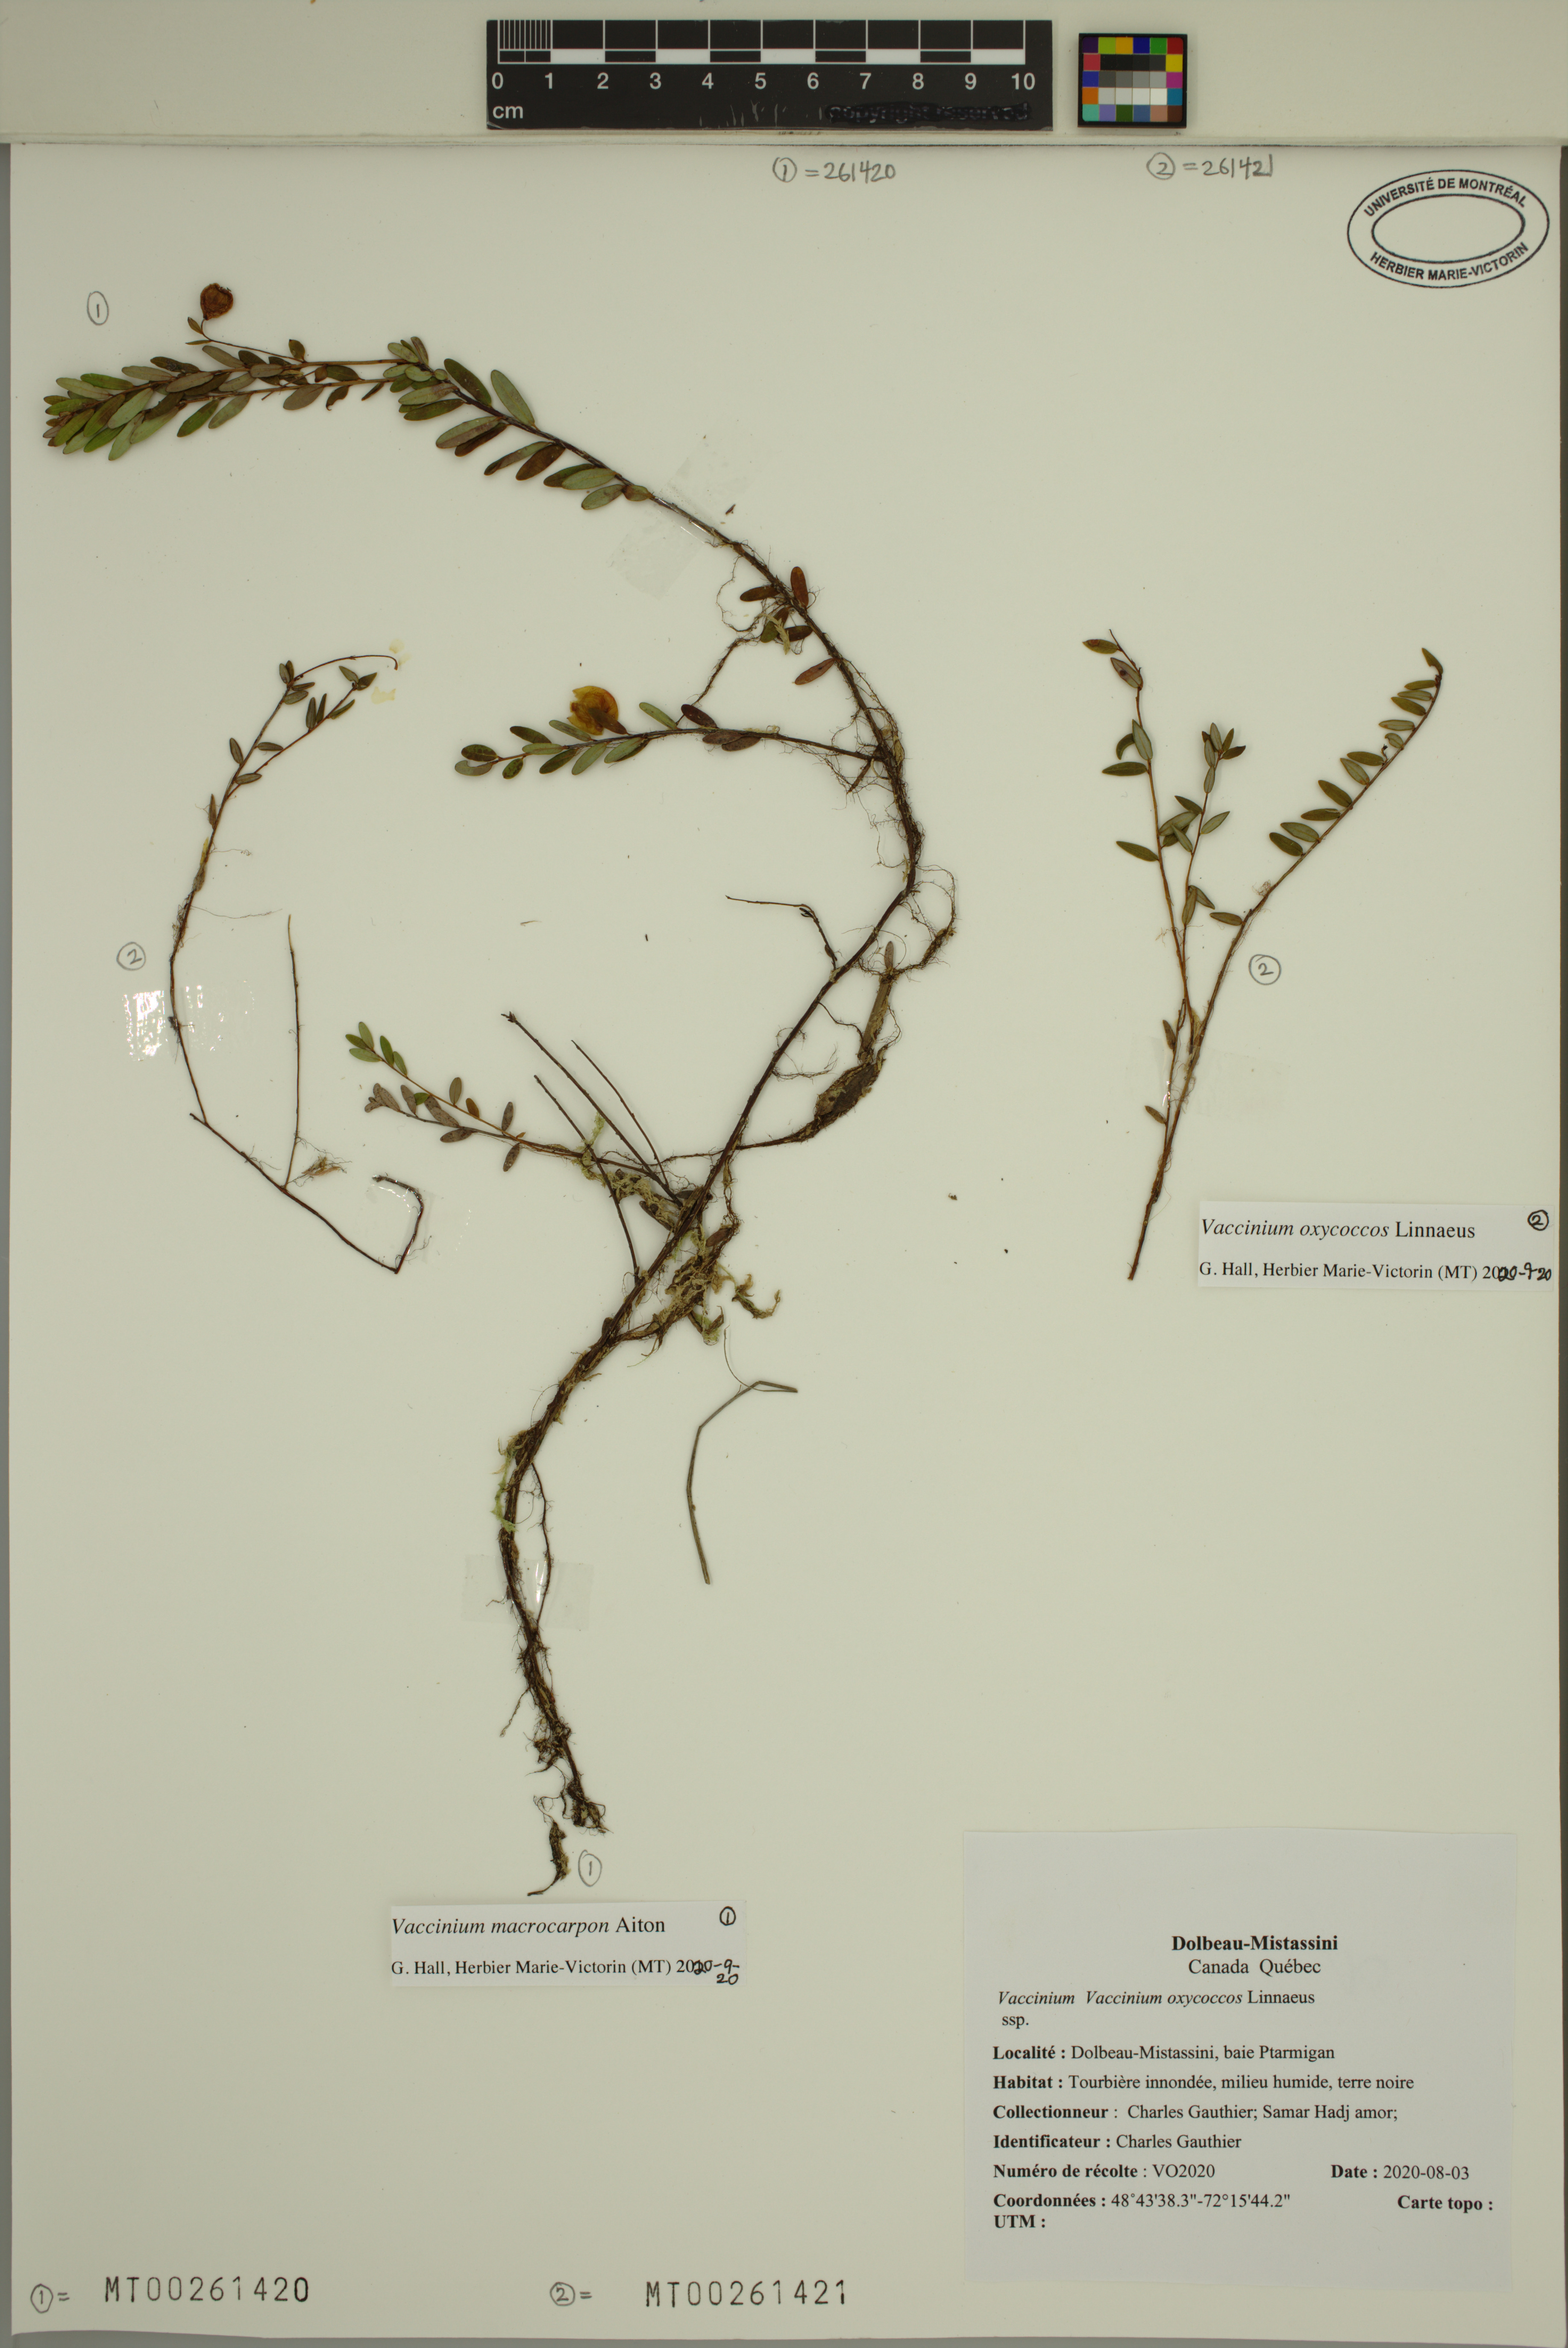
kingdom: Plantae
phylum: Tracheophyta
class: Magnoliopsida
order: Ericales
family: Ericaceae
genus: Vaccinium
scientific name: Vaccinium macrocarpon
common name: American cranberry
